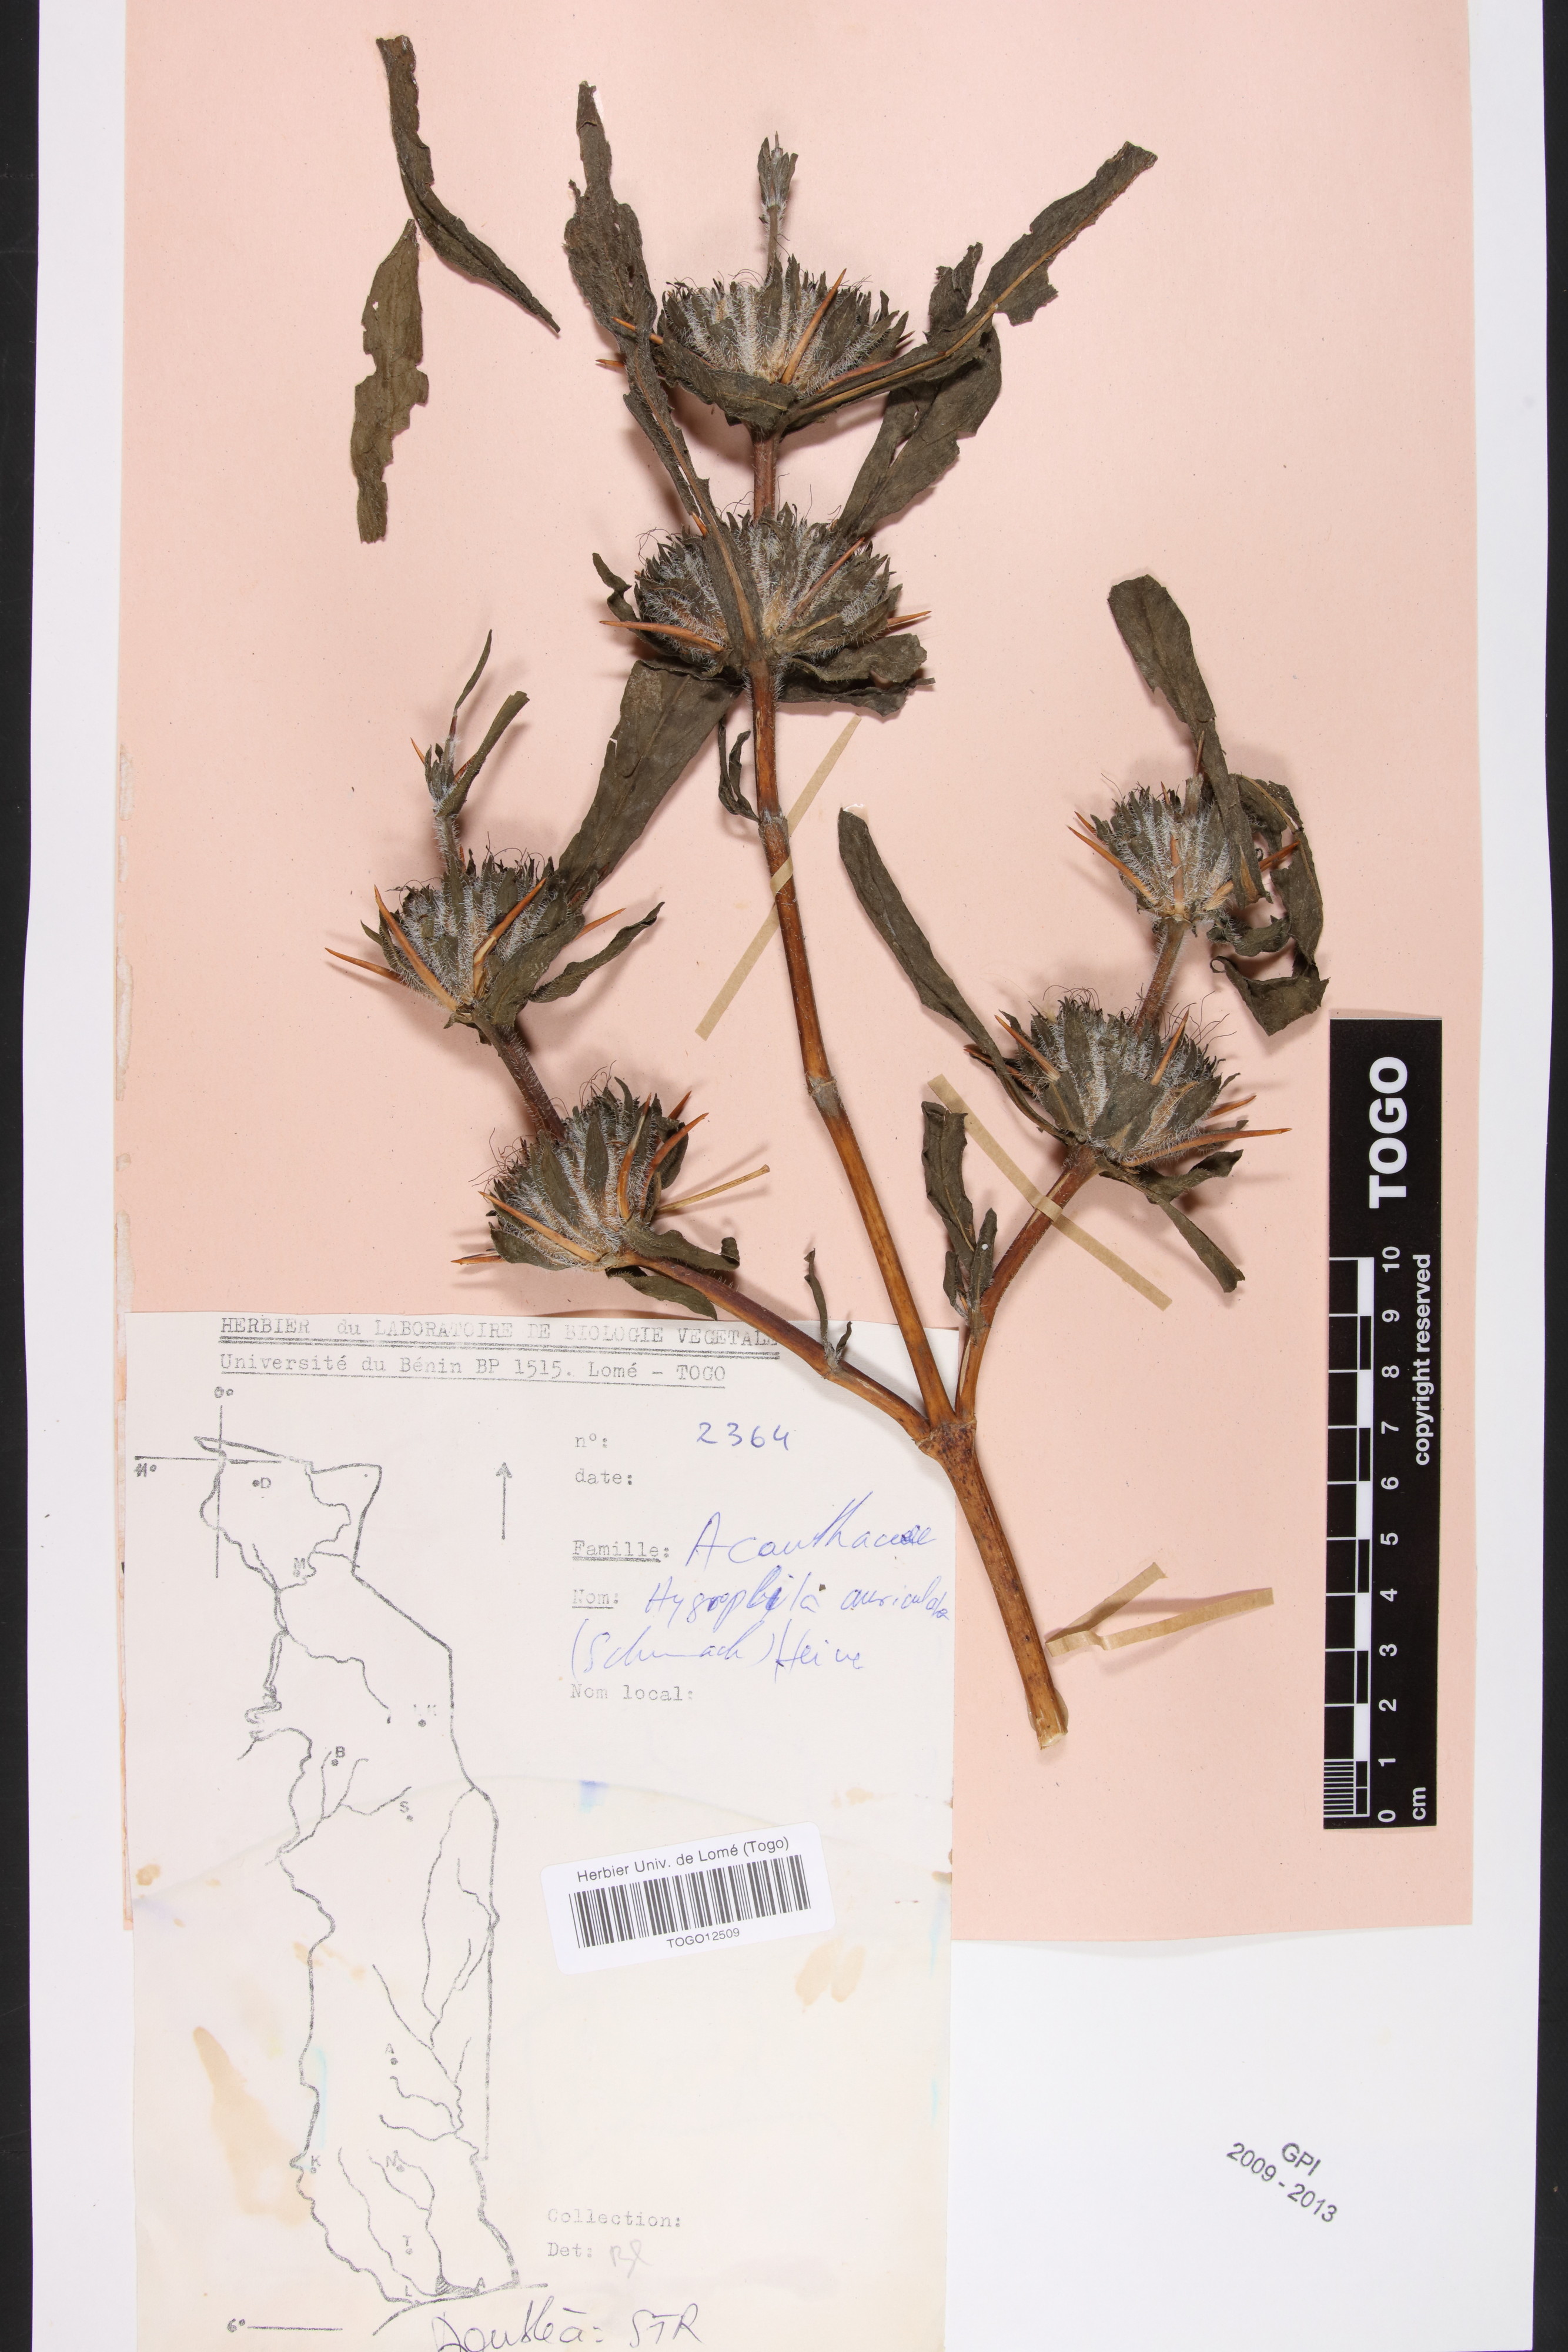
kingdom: Plantae
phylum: Tracheophyta
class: Magnoliopsida
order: Lamiales
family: Acanthaceae
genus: Hygrophila
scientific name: Hygrophila auriculata
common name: Hygrophila
